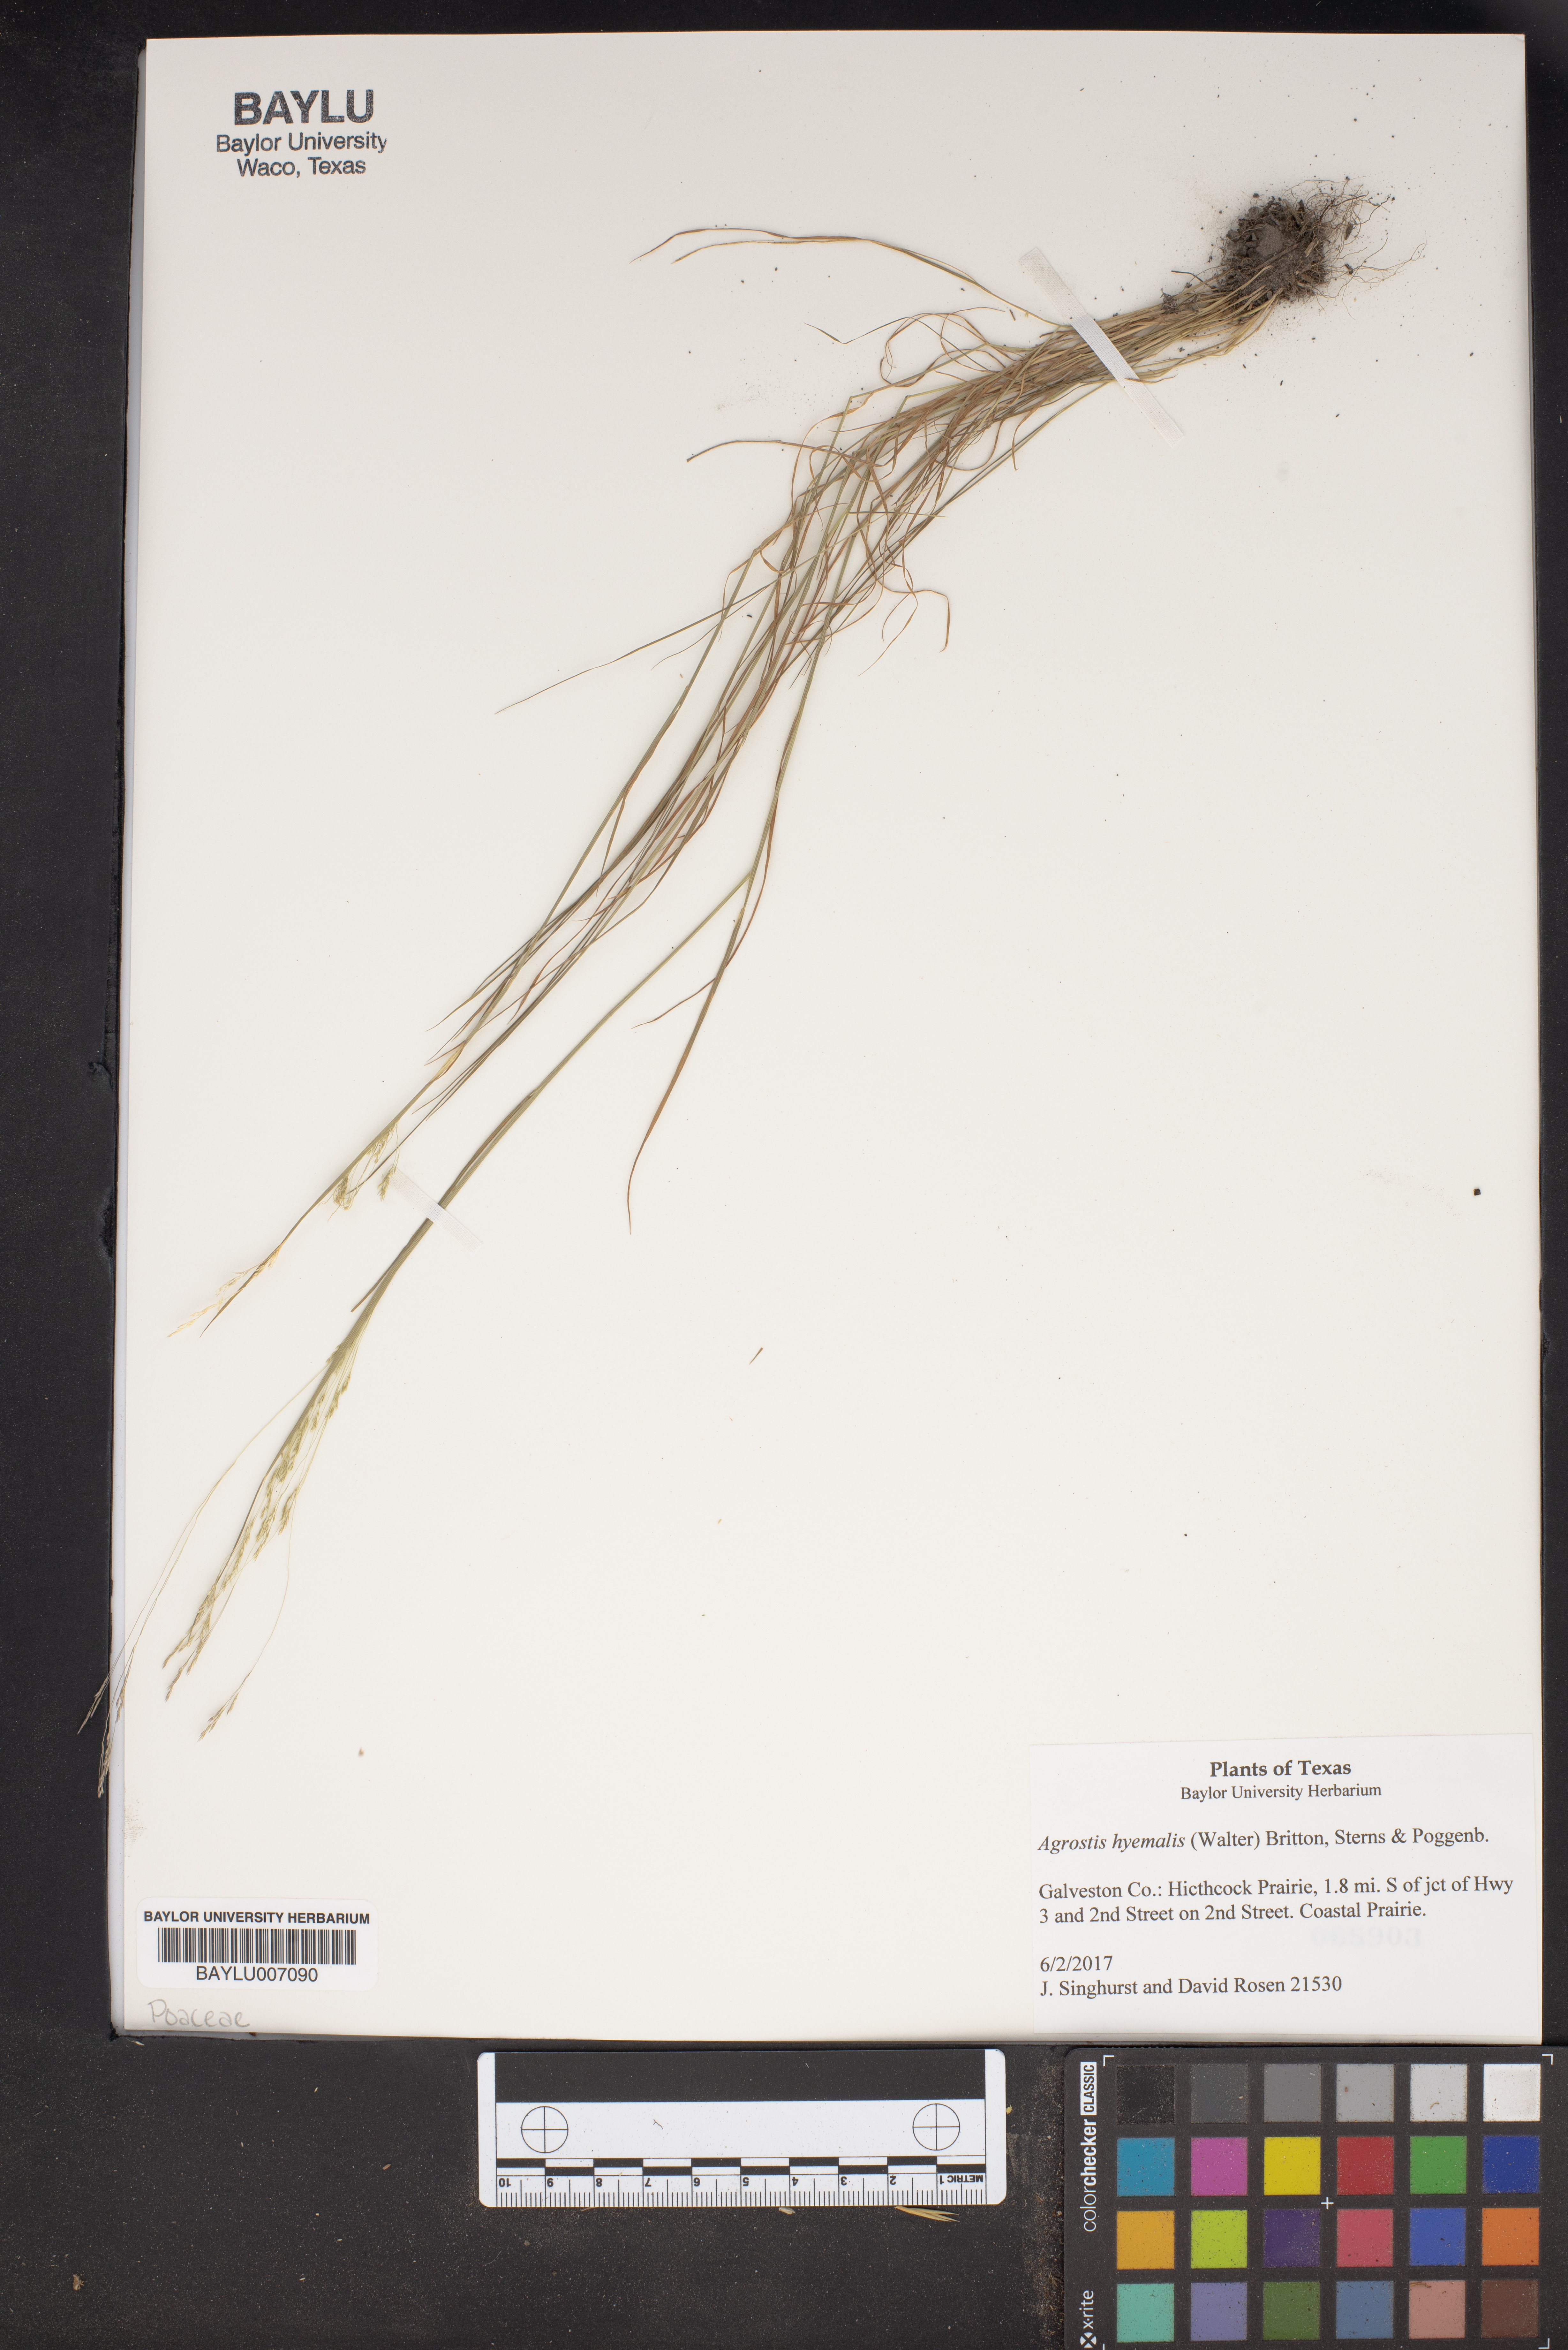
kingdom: Plantae
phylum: Tracheophyta
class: Liliopsida
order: Poales
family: Poaceae
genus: Agrostis
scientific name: Agrostis hyemalis
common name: Small bent
